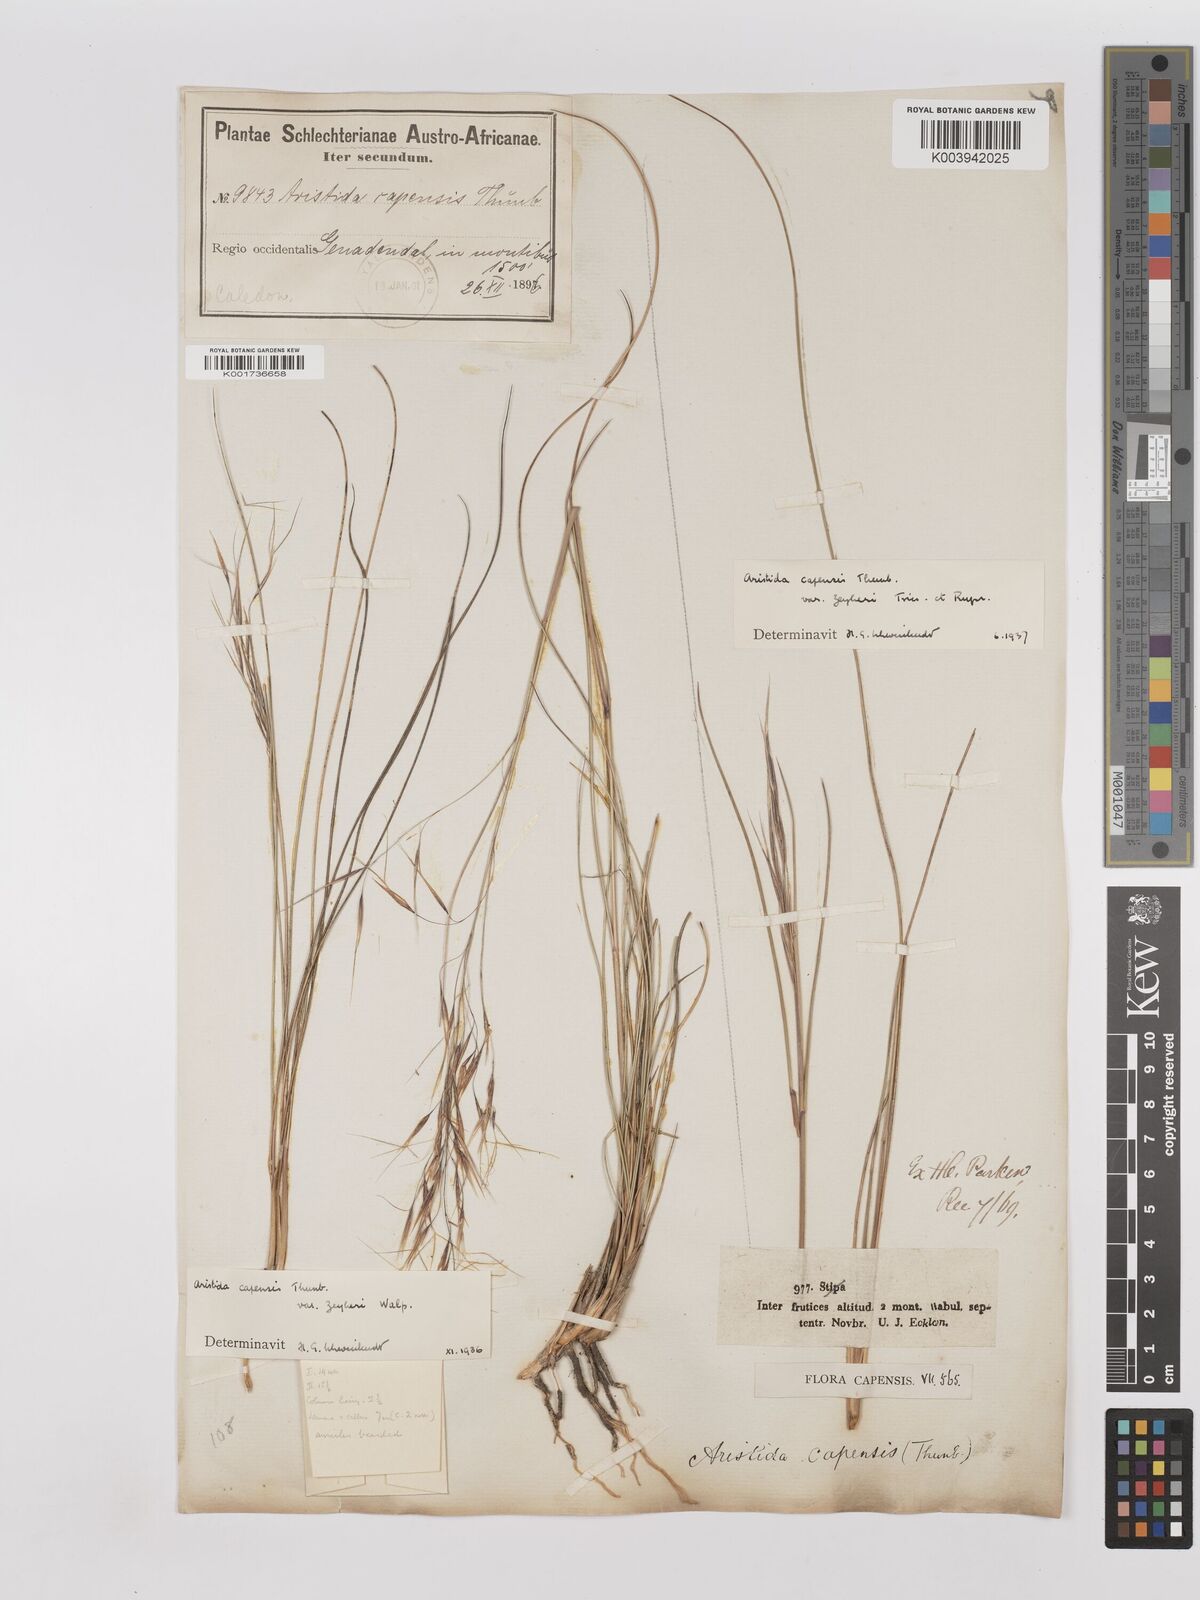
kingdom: Plantae
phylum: Tracheophyta
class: Liliopsida
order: Poales
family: Poaceae
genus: Stipagrostis
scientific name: Stipagrostis zeyheri
